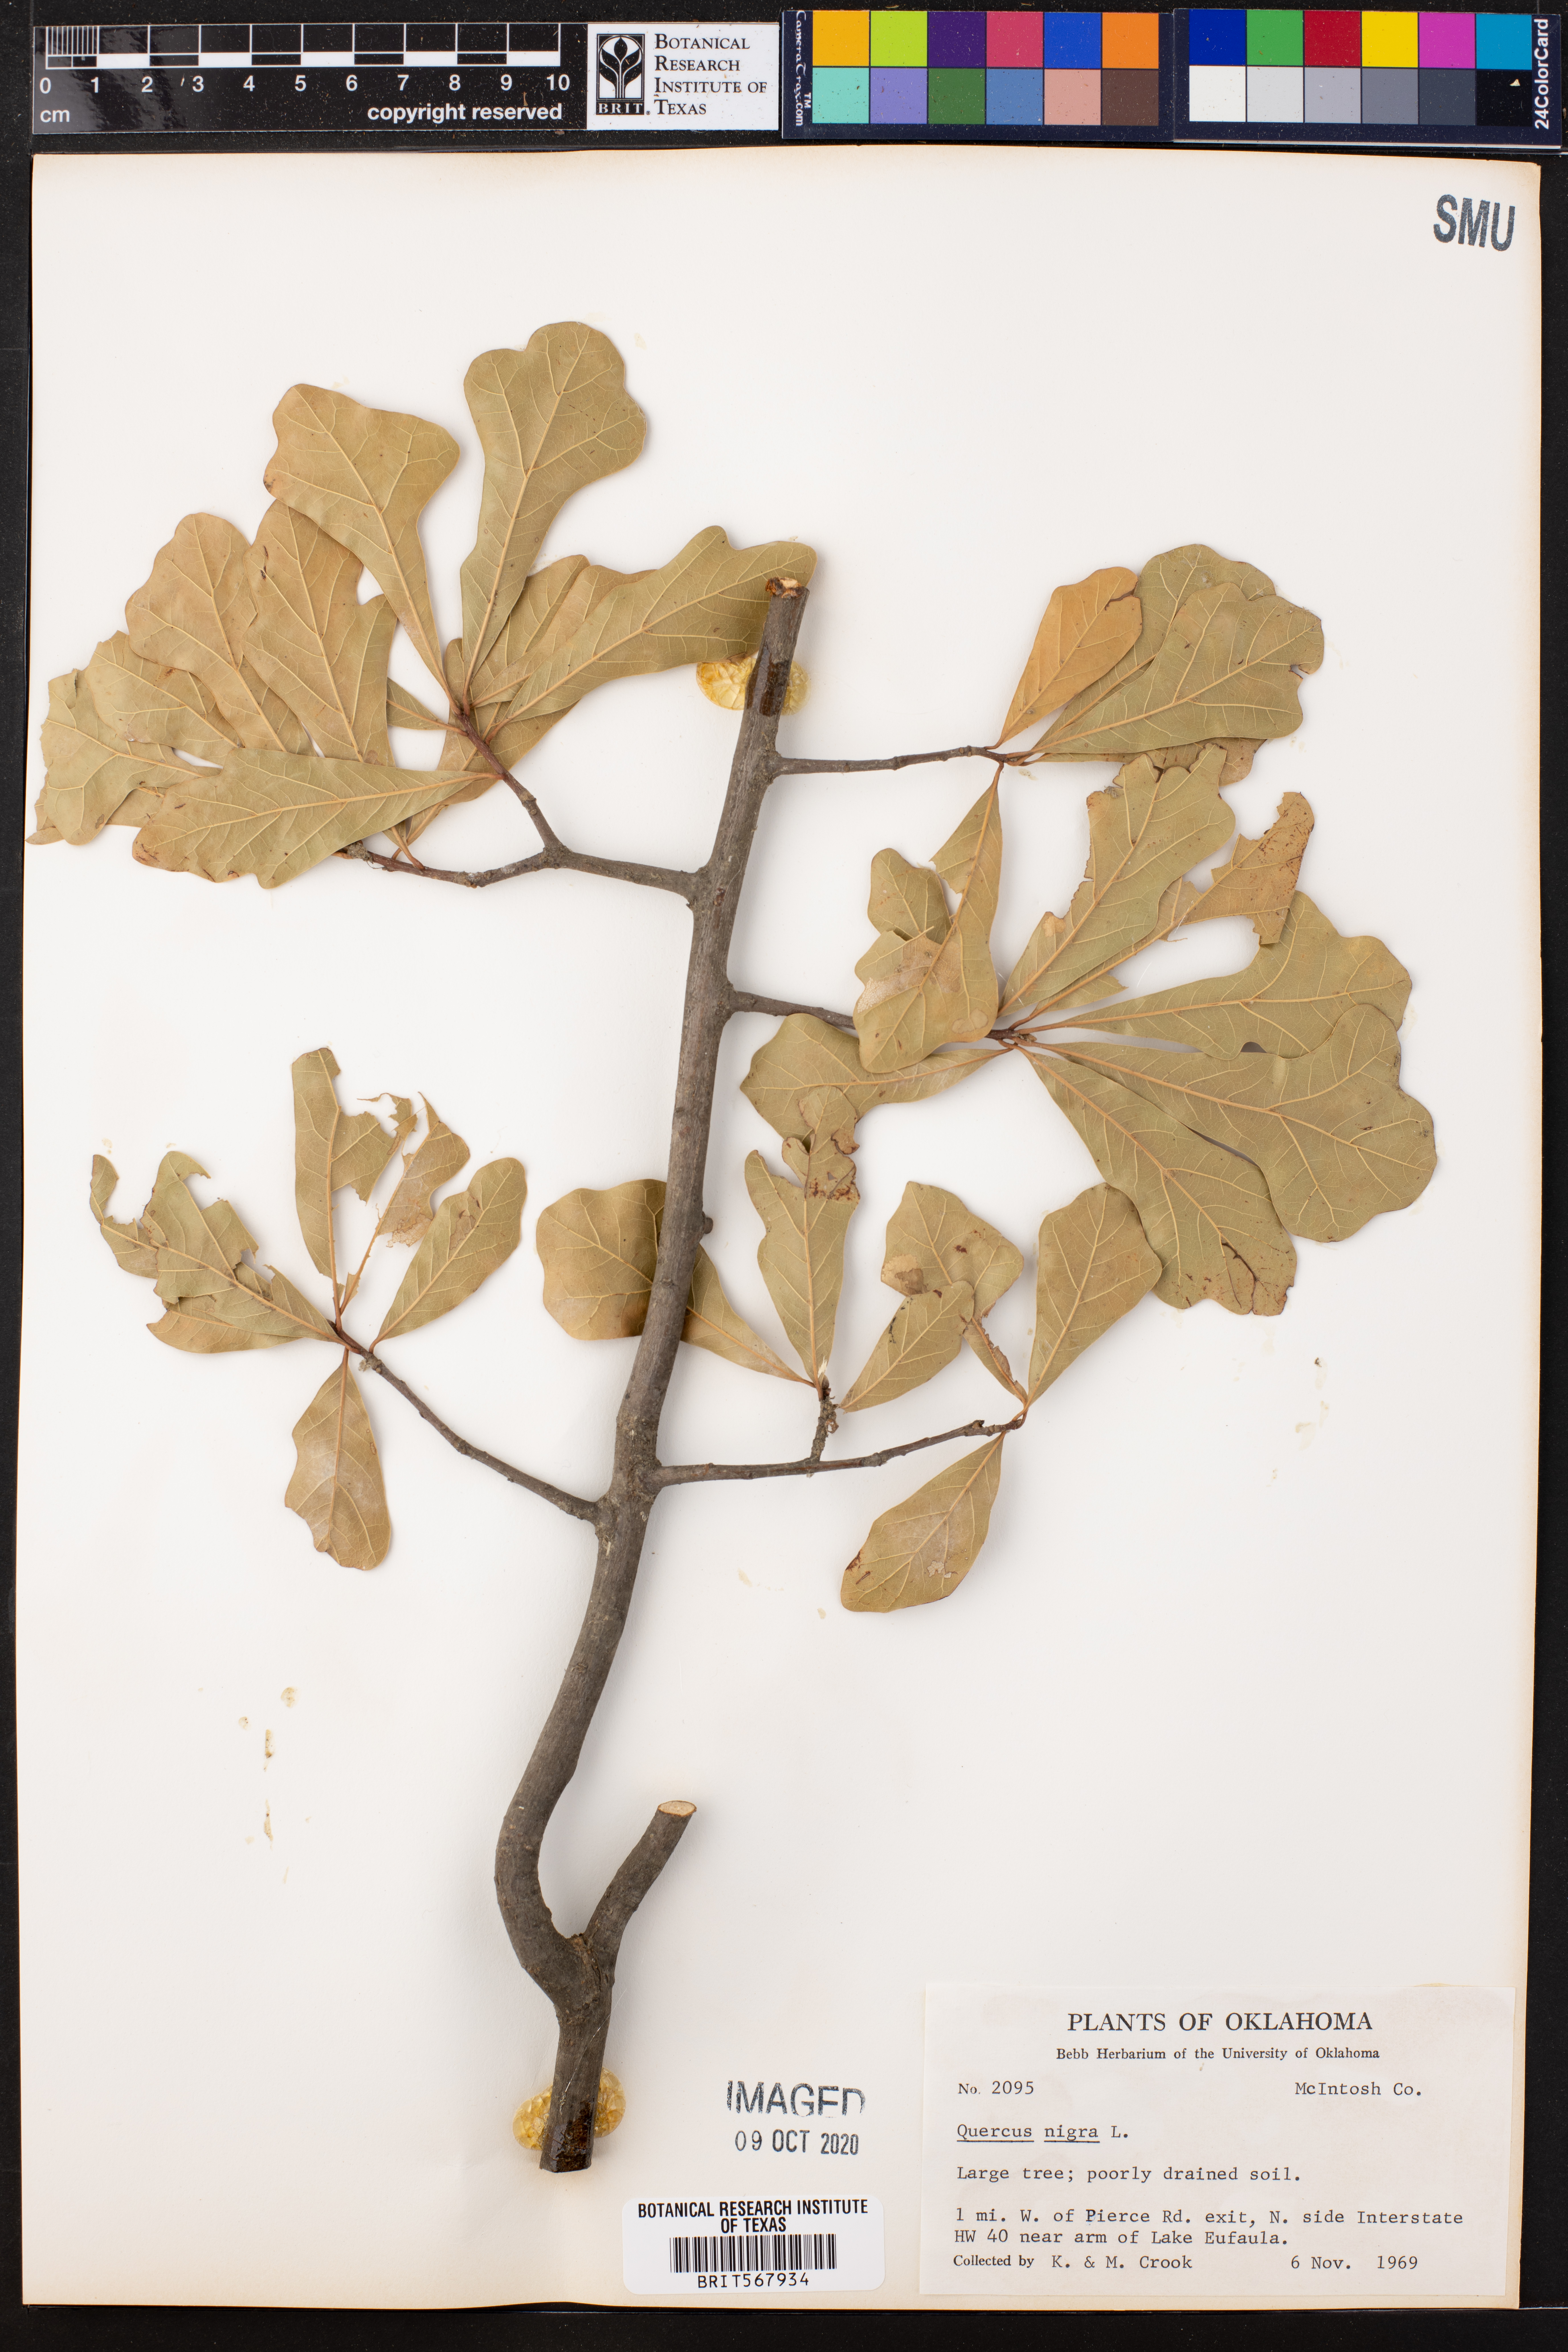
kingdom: Plantae
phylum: Tracheophyta
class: Magnoliopsida
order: Fagales
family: Fagaceae
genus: Quercus
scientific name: Quercus nigra
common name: Water oak
